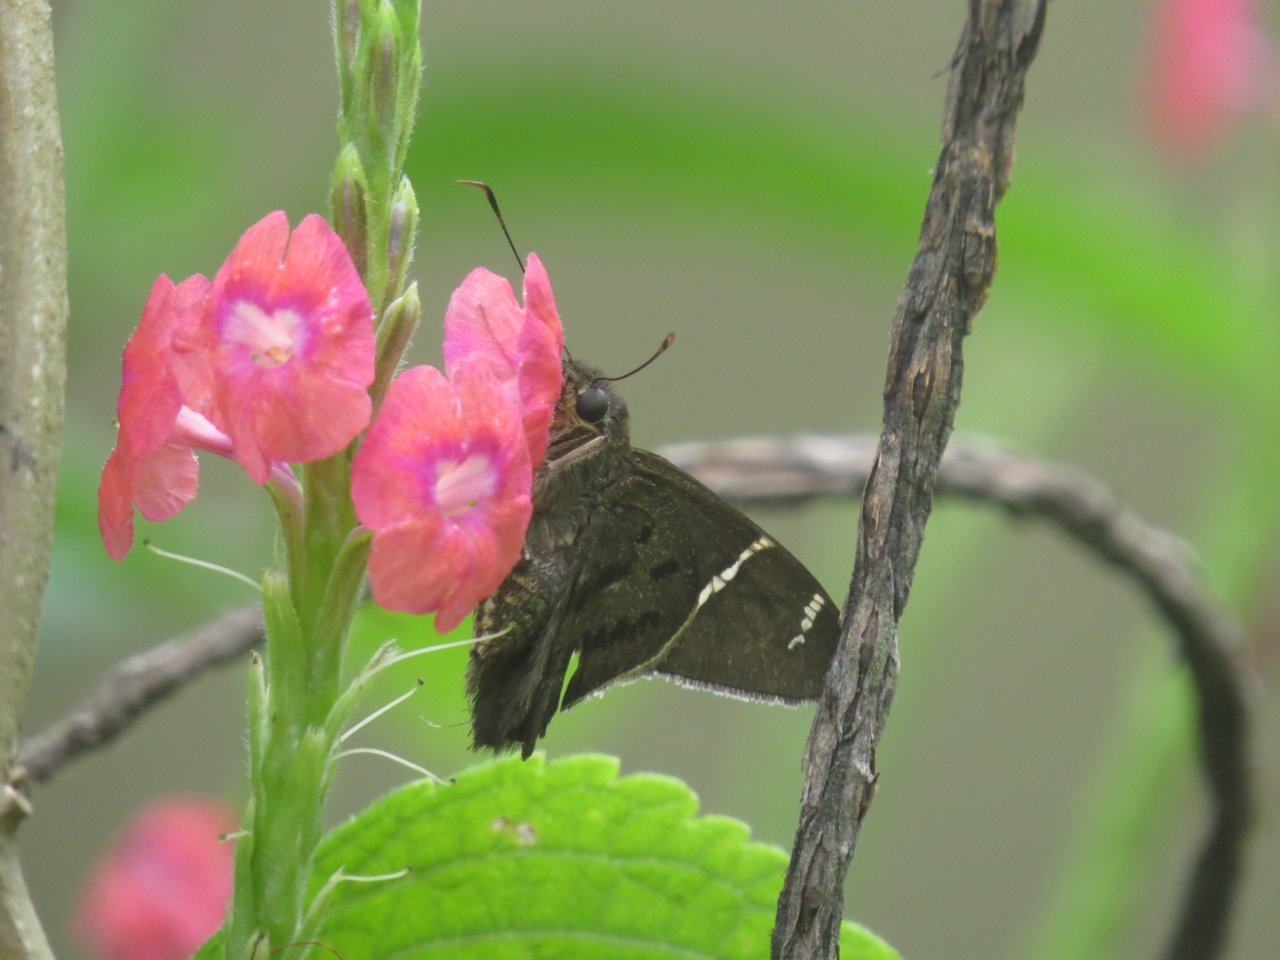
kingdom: Animalia
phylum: Arthropoda
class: Insecta
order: Lepidoptera
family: Hesperiidae
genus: Urbanus
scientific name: Urbanus teleus
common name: Teleus Longtail
